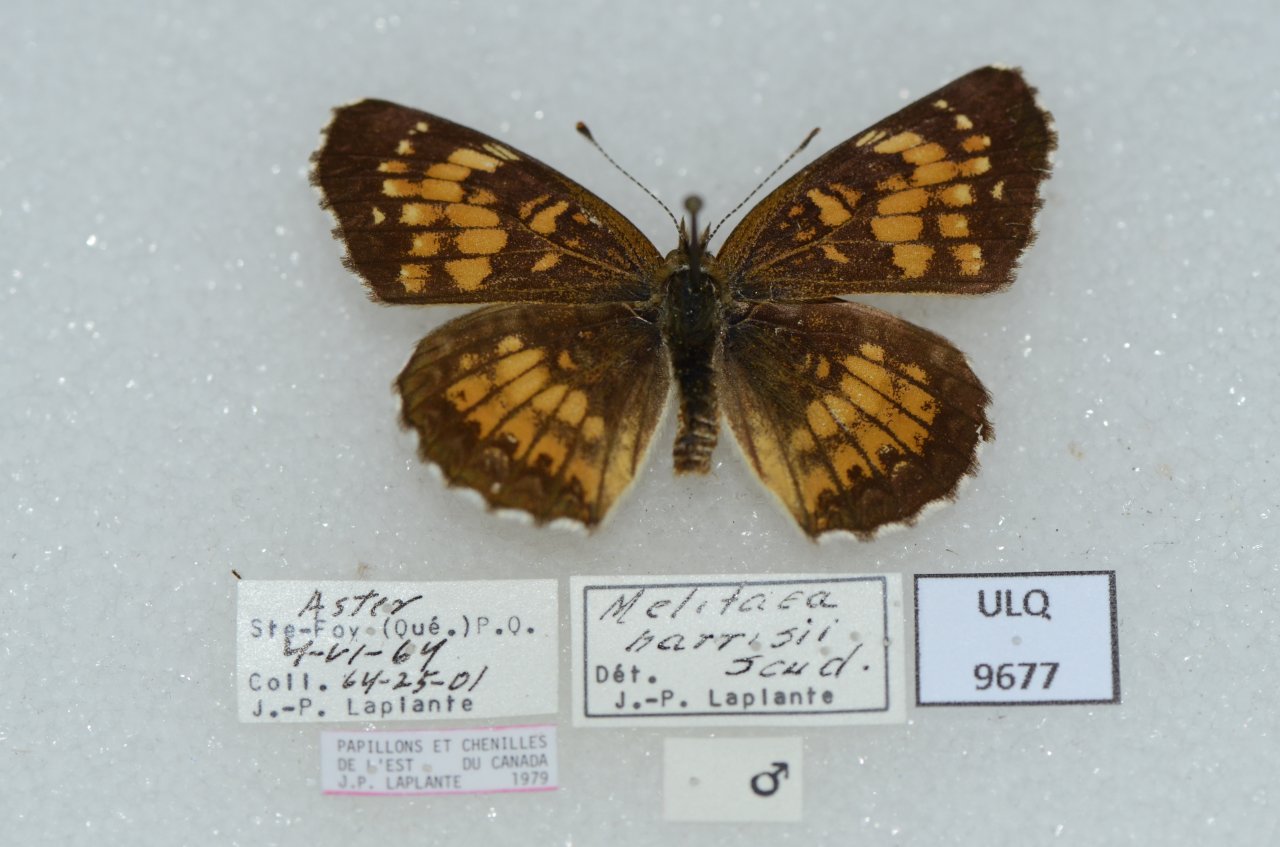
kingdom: Animalia
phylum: Arthropoda
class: Insecta
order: Lepidoptera
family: Nymphalidae
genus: Chlosyne
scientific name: Chlosyne harrisii
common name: Harris's Checkerspot
